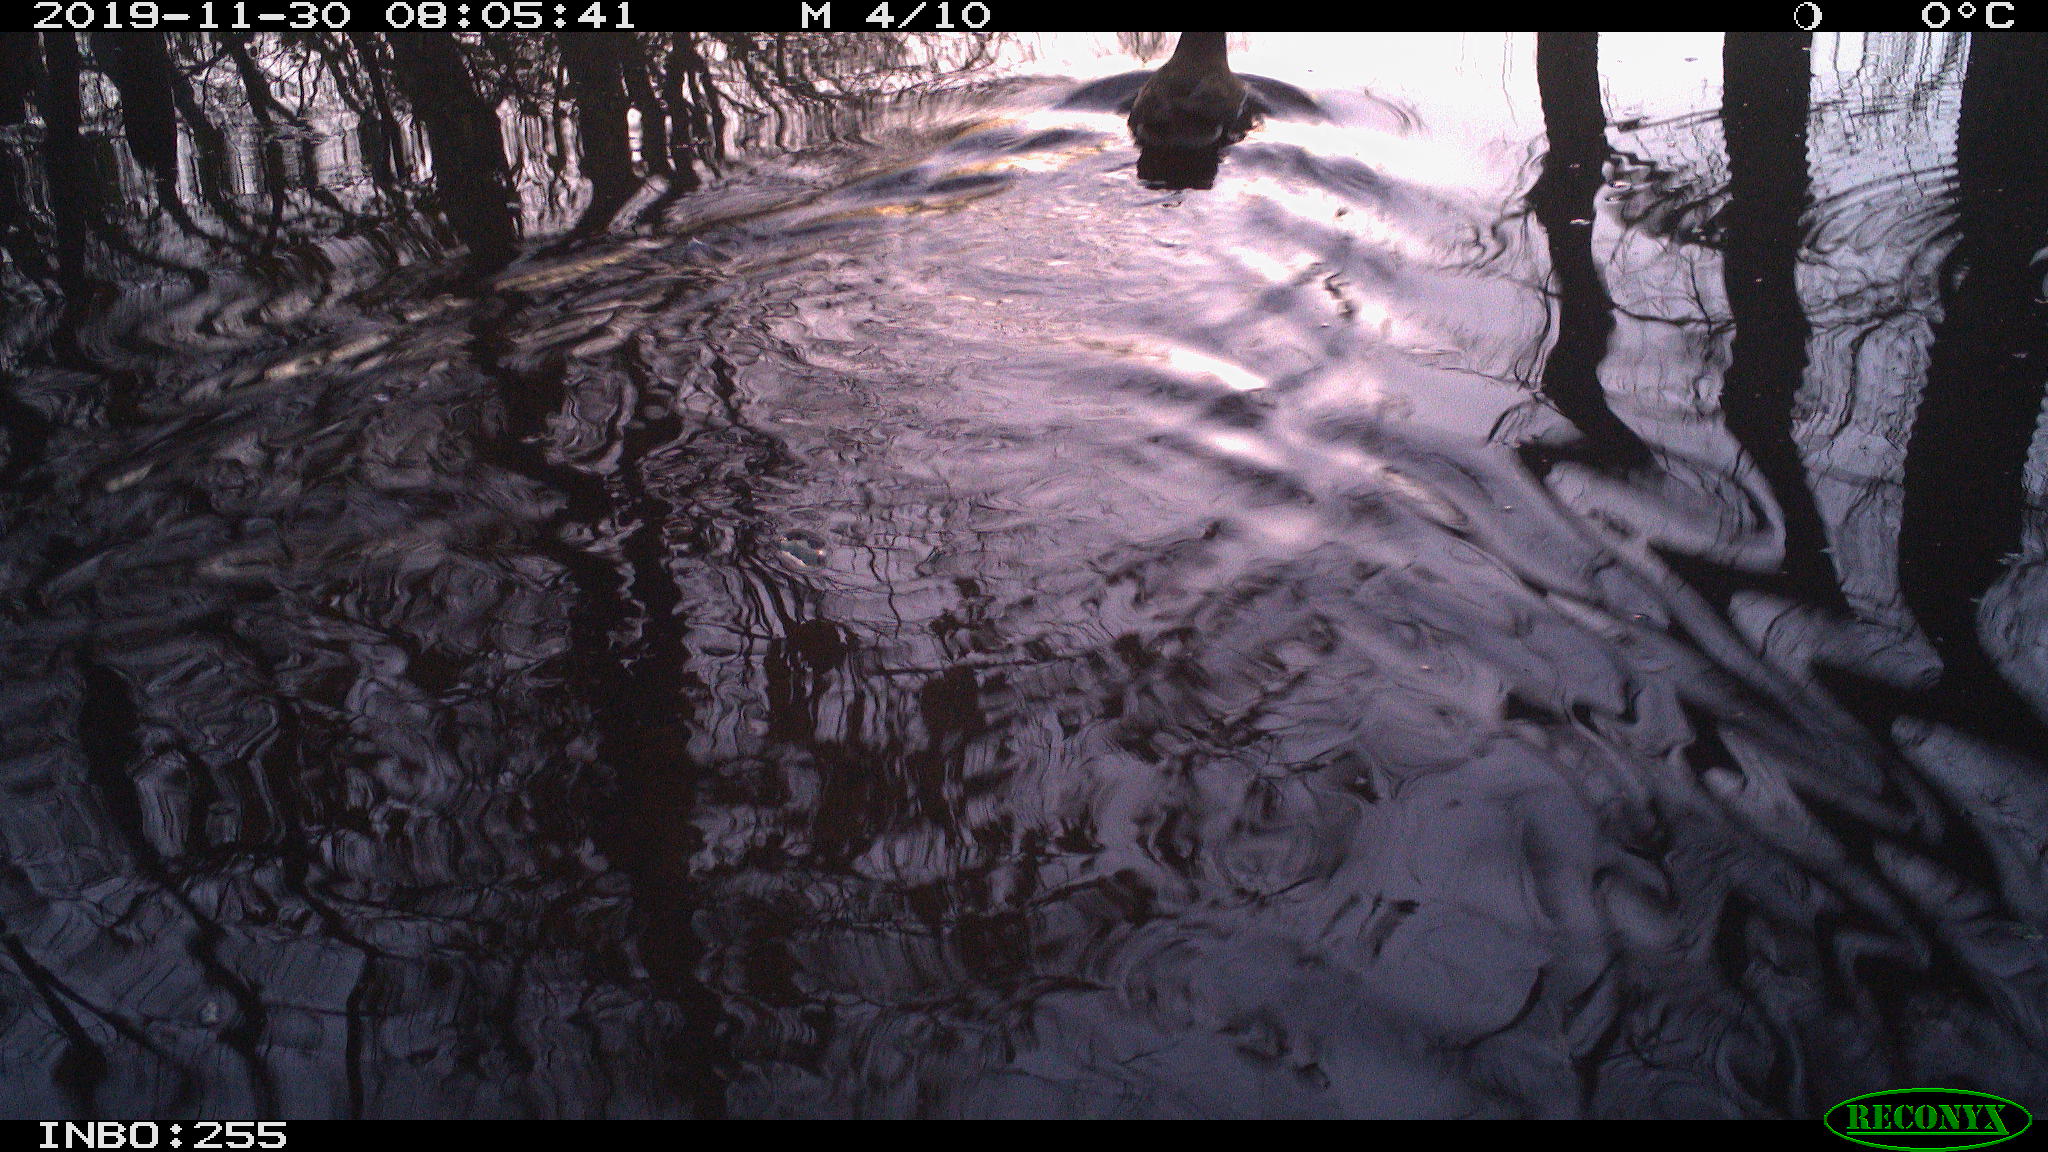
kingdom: Animalia
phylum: Chordata
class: Aves
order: Gruiformes
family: Rallidae
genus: Gallinula
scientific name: Gallinula chloropus
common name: Common moorhen
